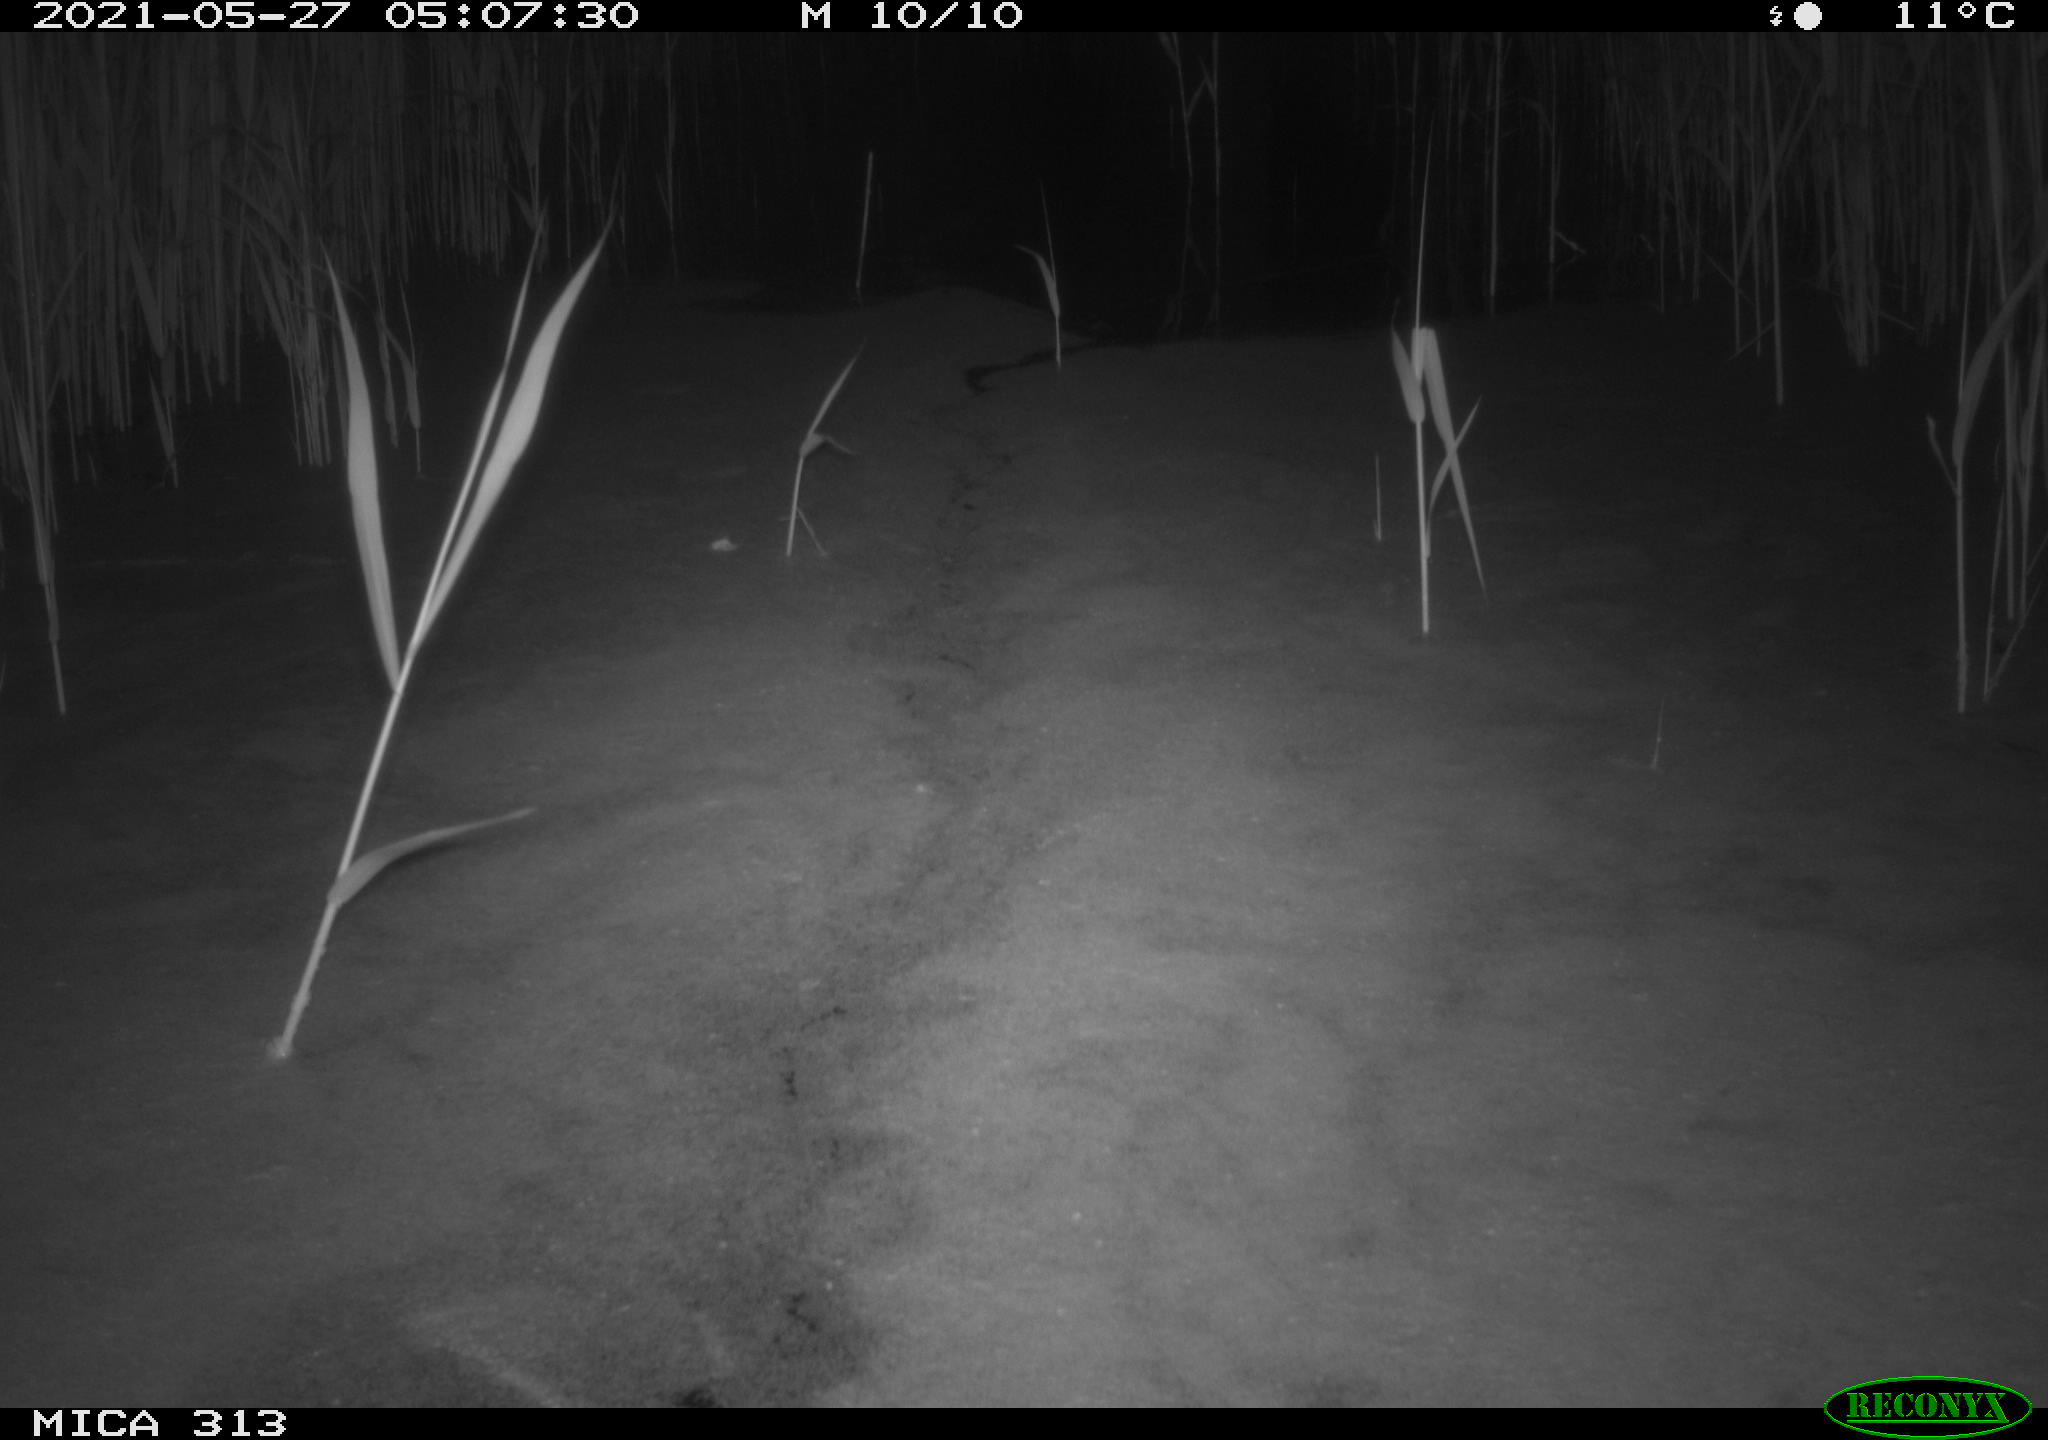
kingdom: Animalia
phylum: Chordata
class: Aves
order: Anseriformes
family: Anatidae
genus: Anas
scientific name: Anas platyrhynchos
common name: Mallard
